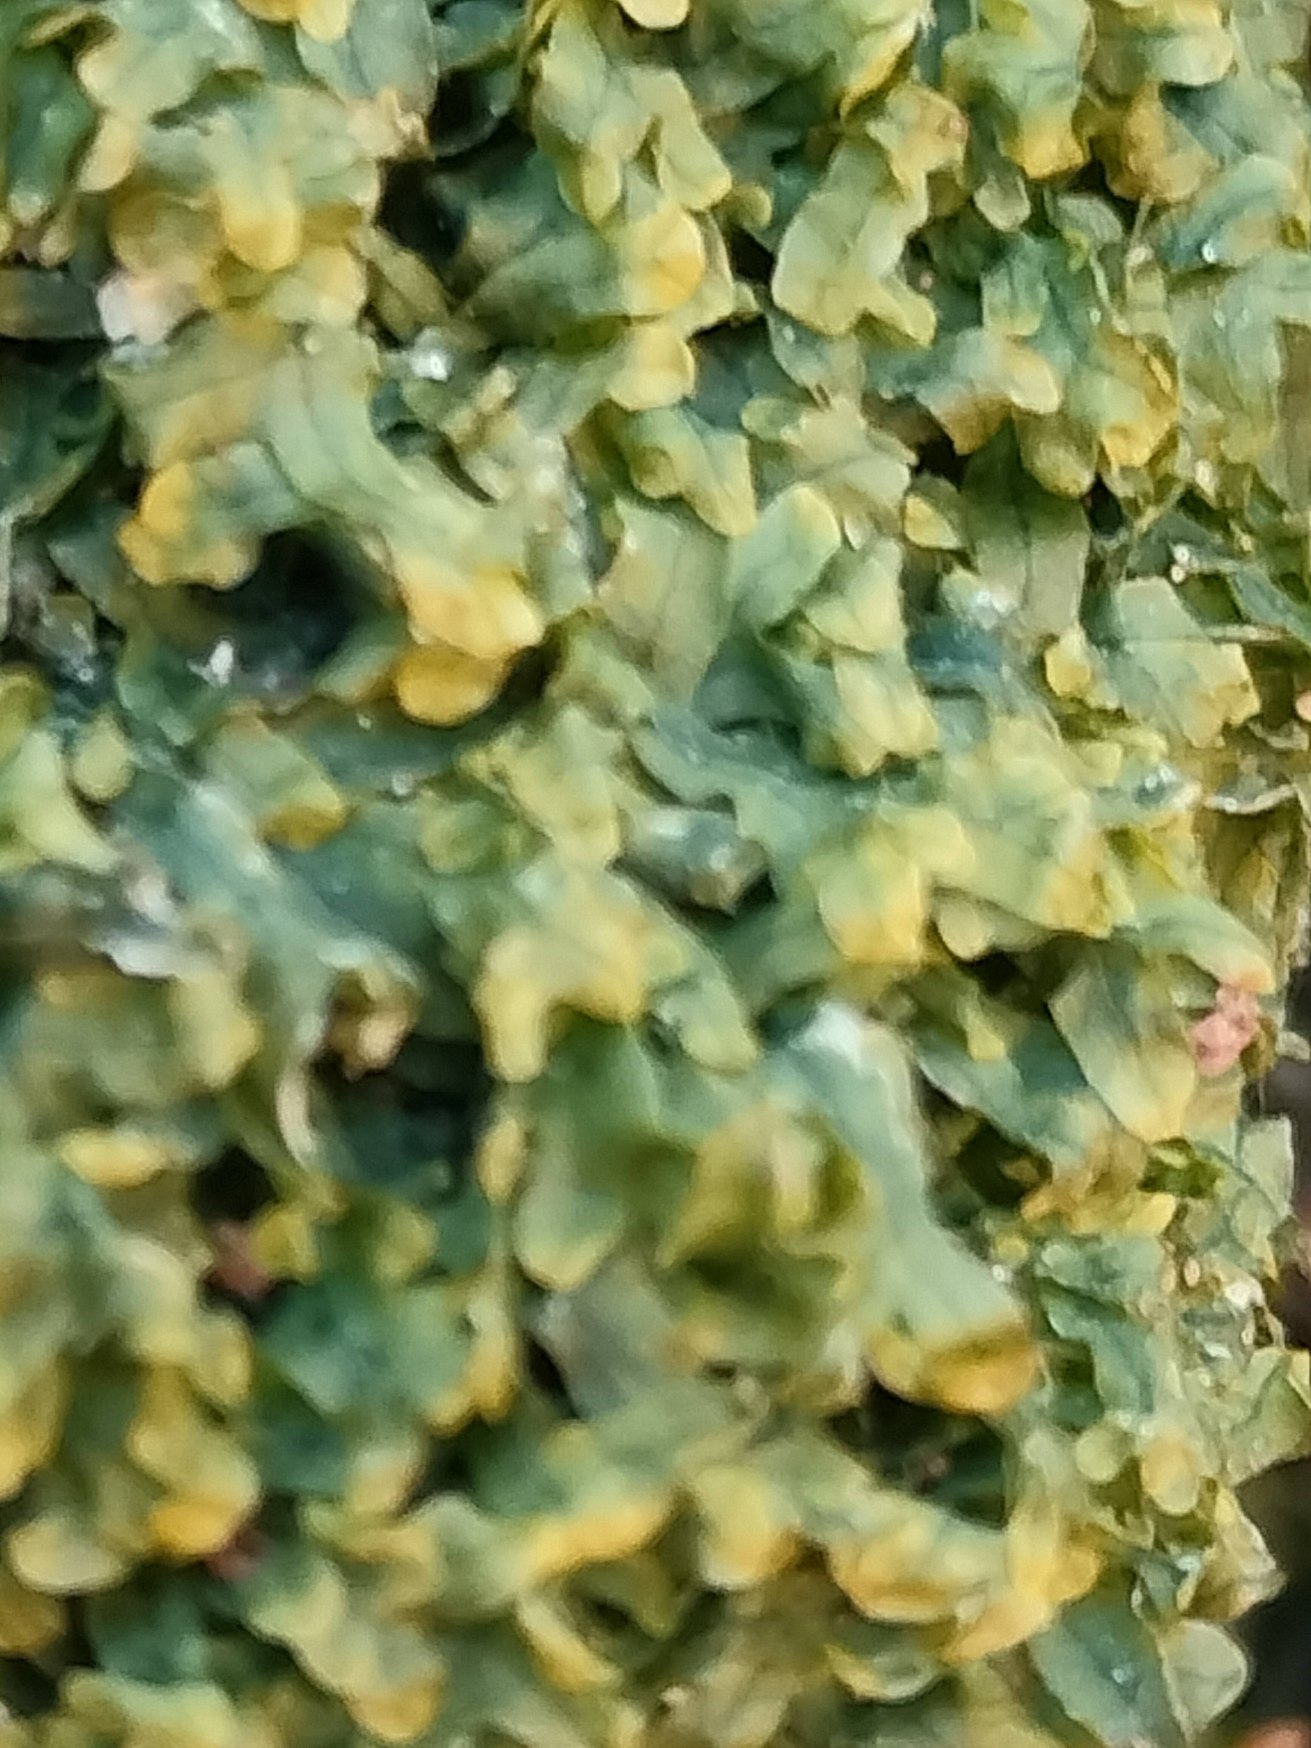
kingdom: Plantae
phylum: Marchantiophyta
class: Jungermanniopsida
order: Metzgeriales
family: Metzgeriaceae
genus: Metzgeria
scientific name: Metzgeria furcata
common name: Almindelig gaffelløv
